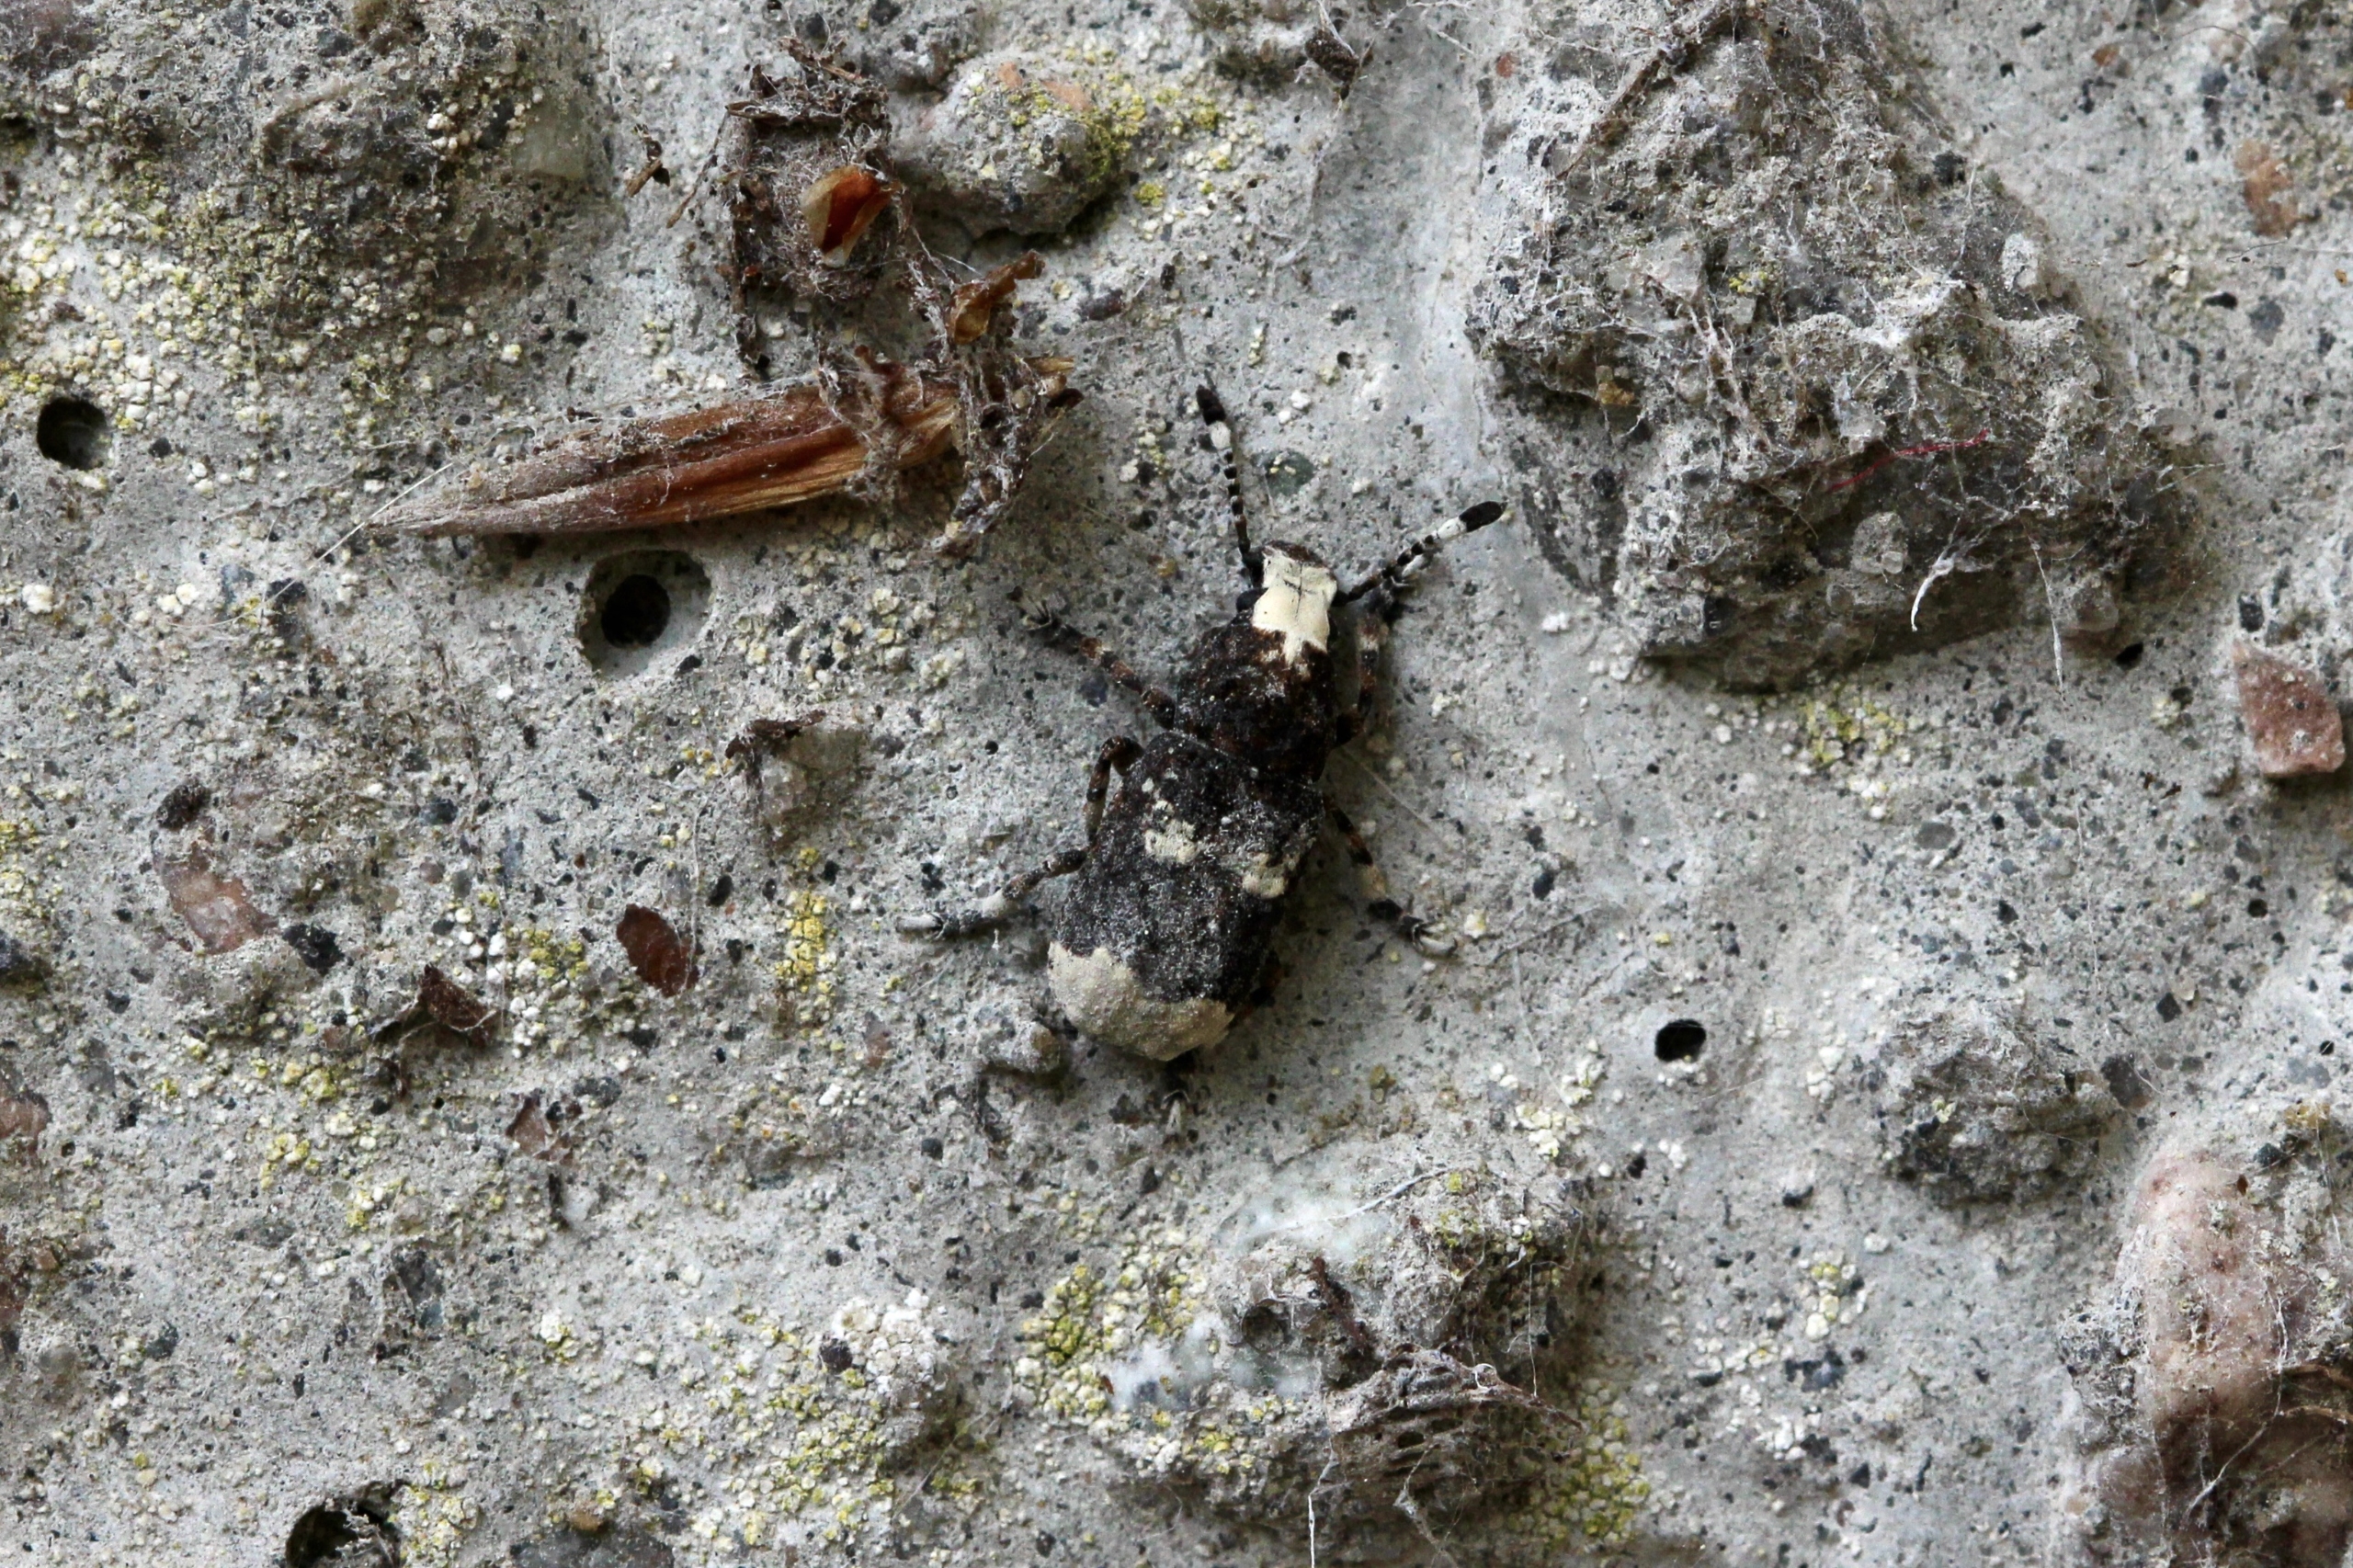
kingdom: Animalia
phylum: Arthropoda
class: Insecta
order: Coleoptera
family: Anthribidae
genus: Platystomos
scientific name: Platystomos albinus
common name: Hvidhovedet bredsnudebille
